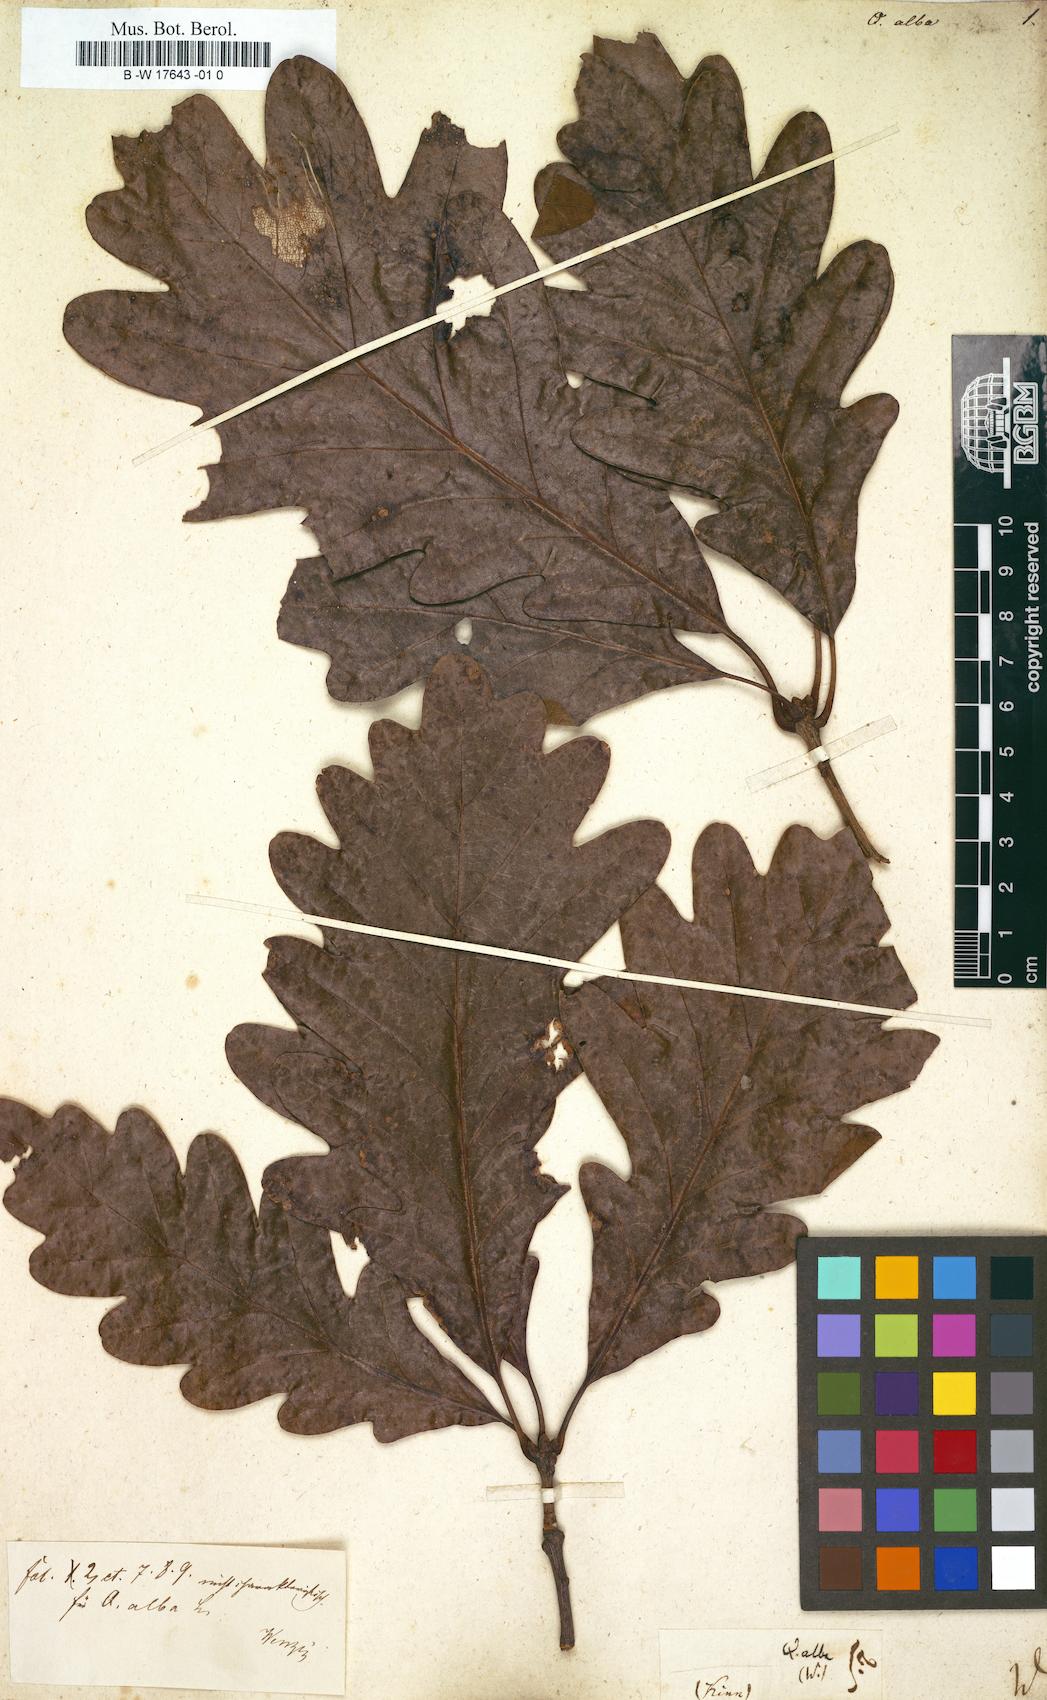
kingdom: Plantae
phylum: Tracheophyta
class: Magnoliopsida
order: Fagales
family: Fagaceae
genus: Quercus
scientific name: Quercus alba
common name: White oak
